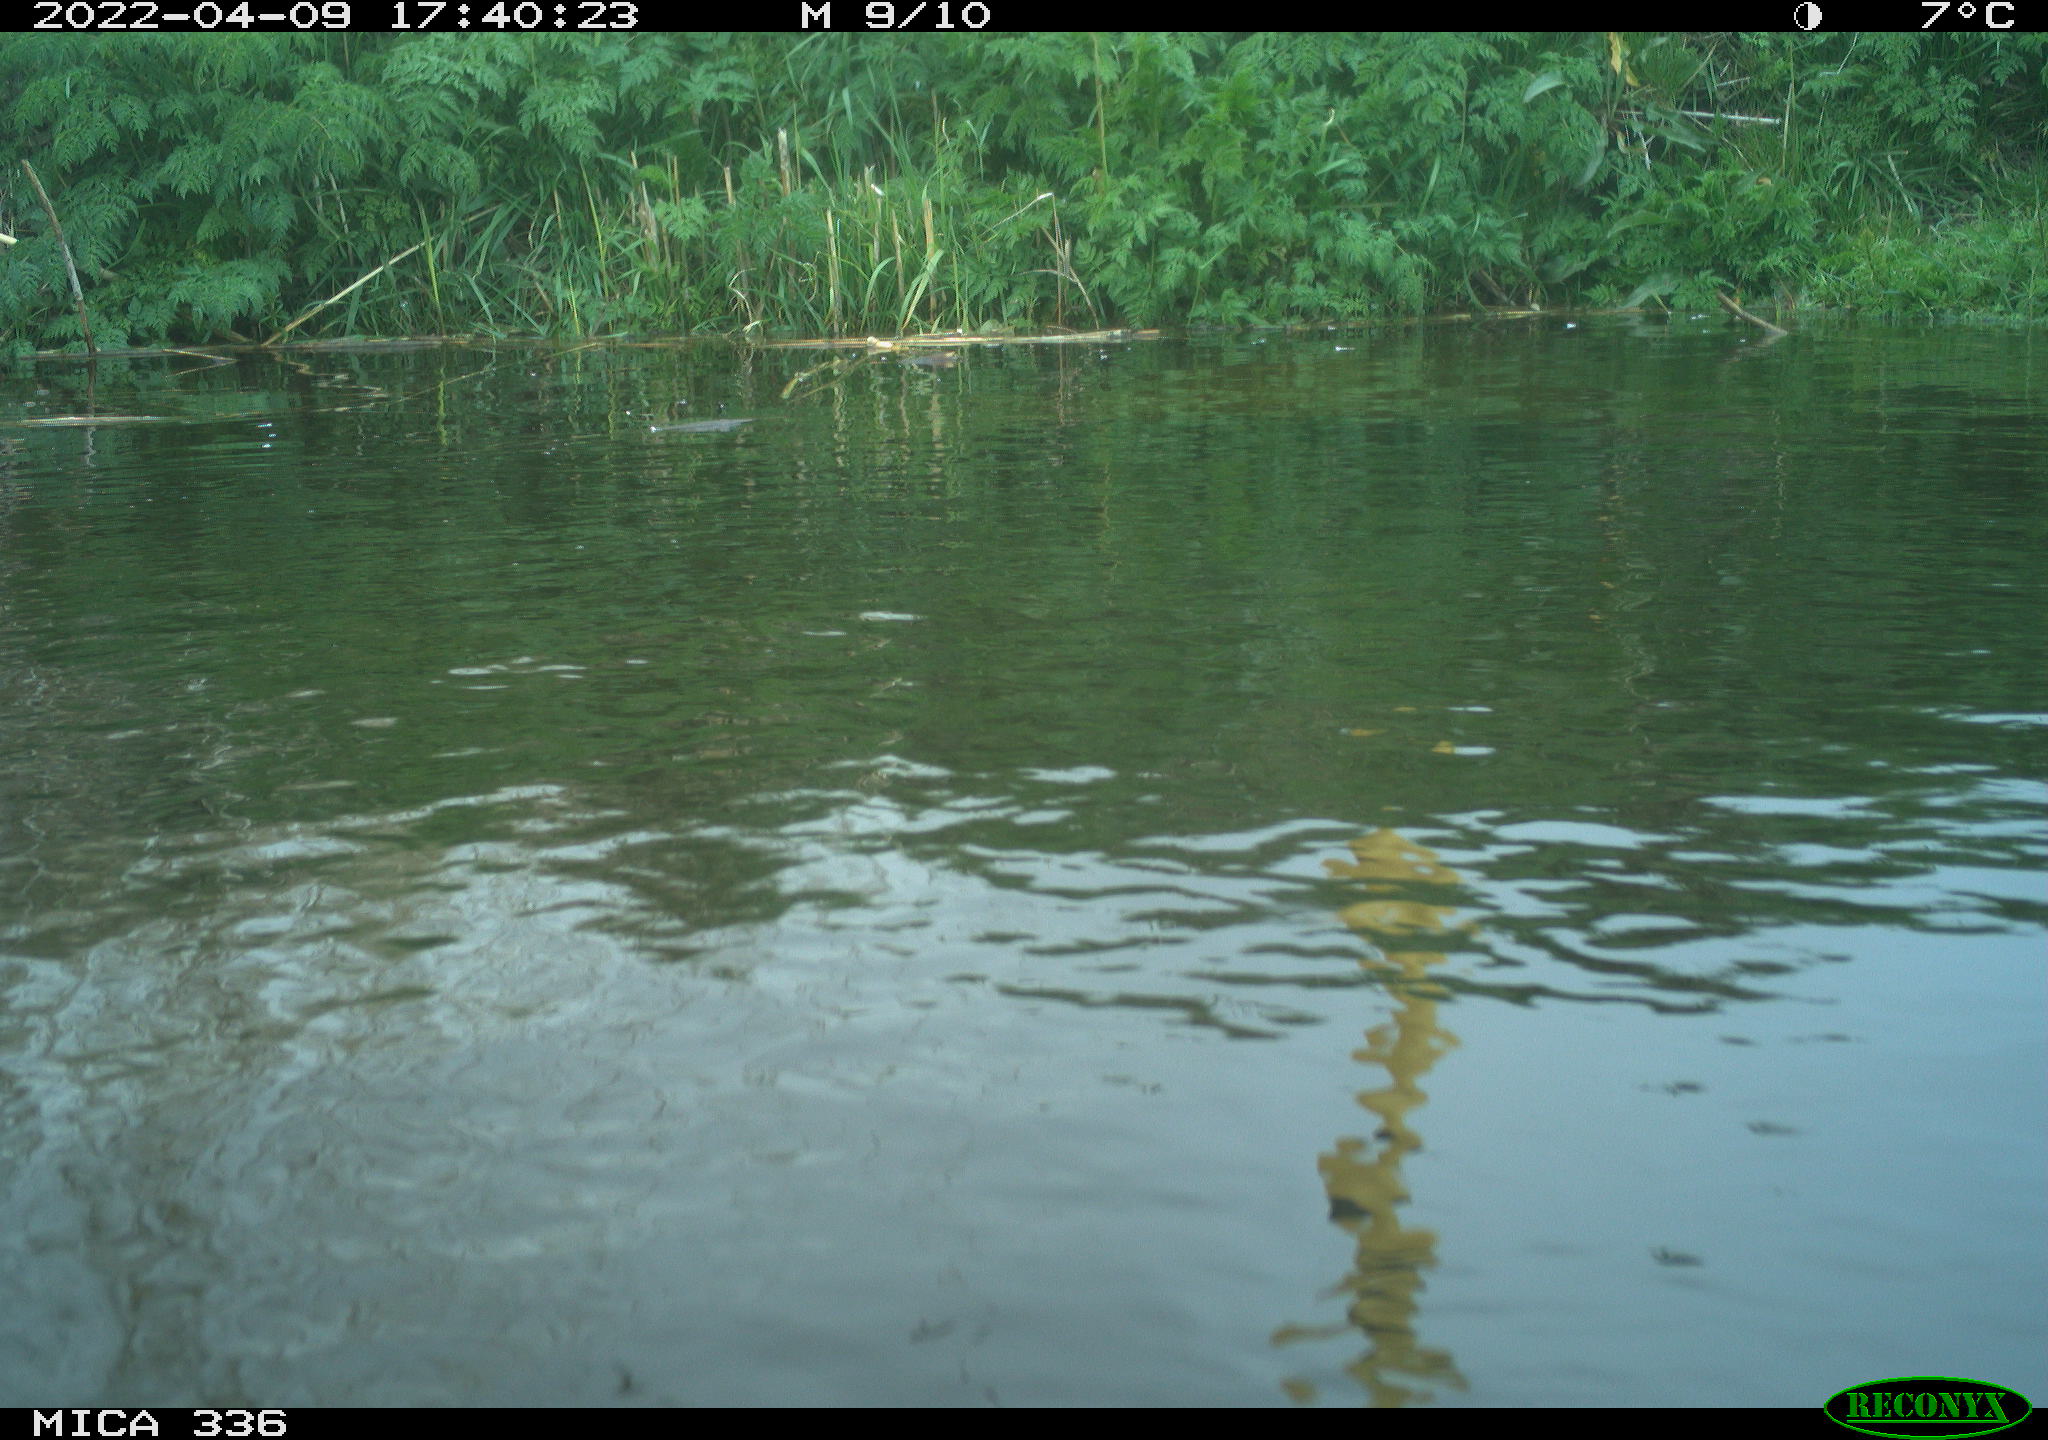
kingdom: Animalia
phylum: Chordata
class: Aves
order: Podicipediformes
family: Podicipedidae
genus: Podiceps
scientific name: Podiceps cristatus
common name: Great crested grebe
